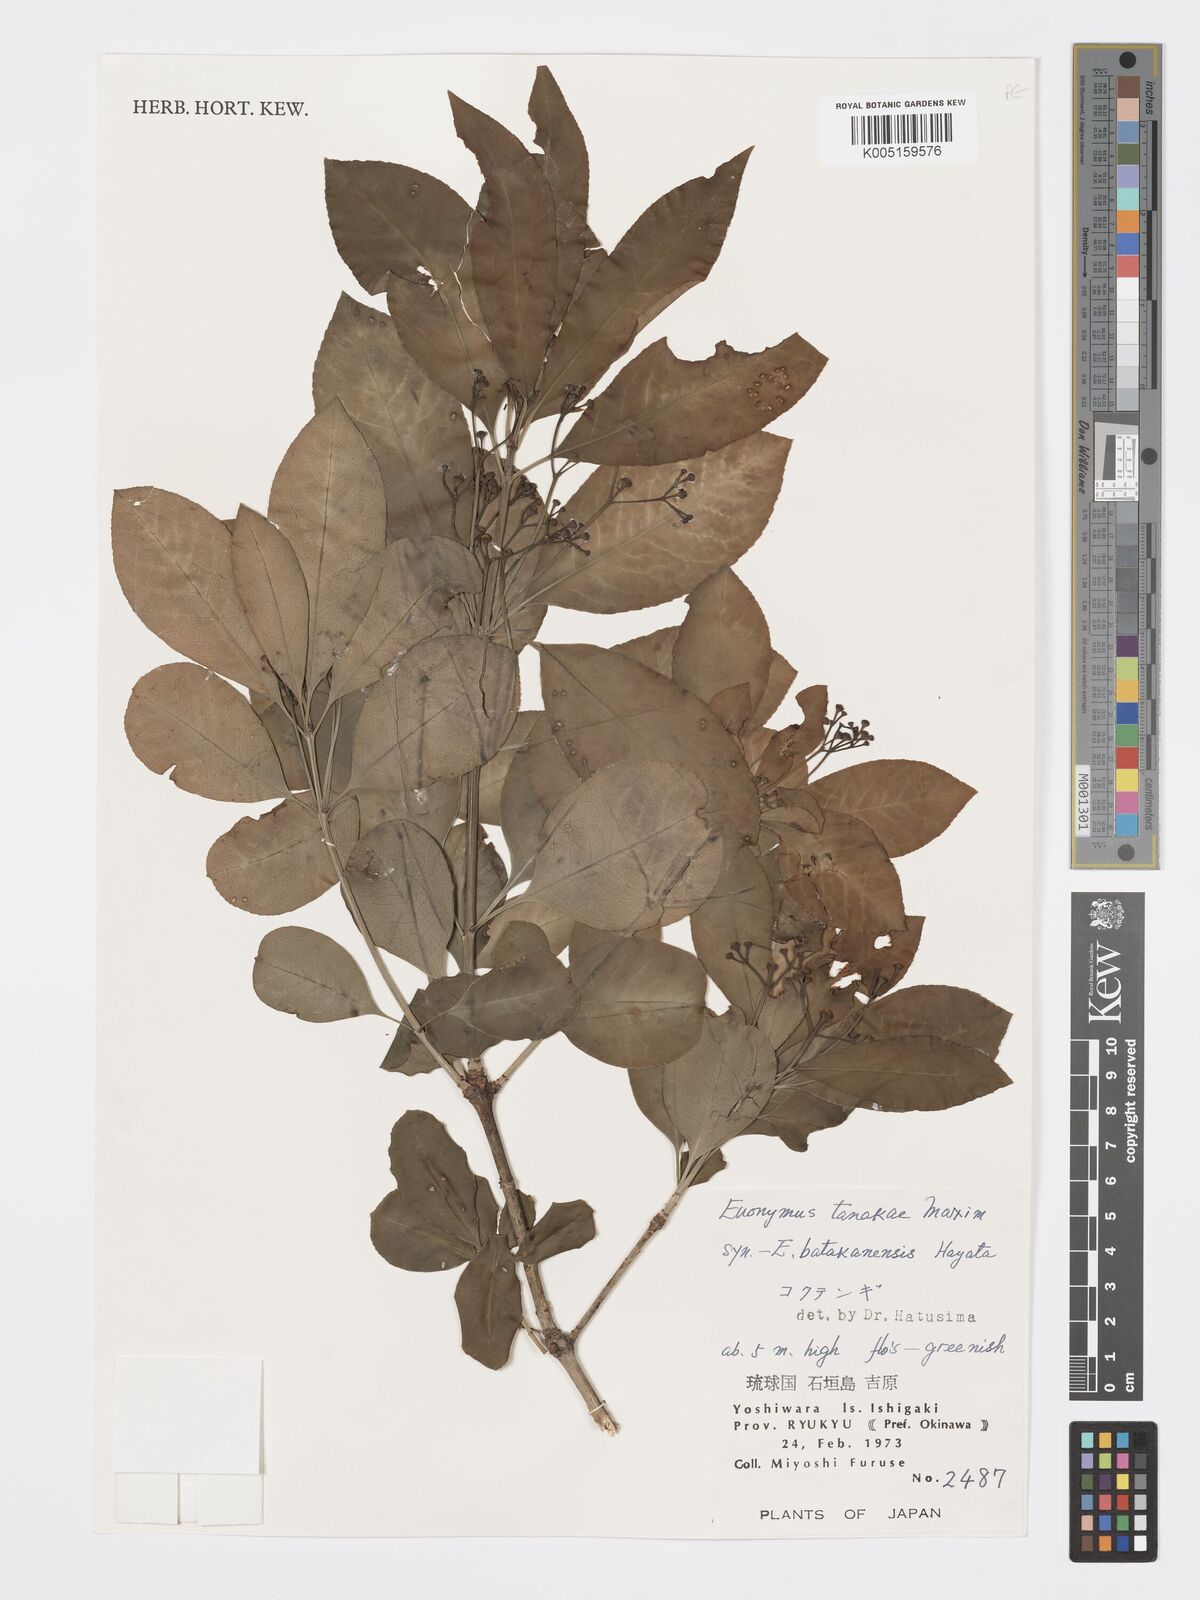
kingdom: Plantae
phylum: Tracheophyta
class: Magnoliopsida
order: Celastrales
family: Celastraceae
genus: Euonymus
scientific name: Euonymus carnosus
